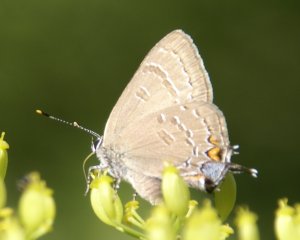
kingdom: Animalia
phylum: Arthropoda
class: Insecta
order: Lepidoptera
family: Lycaenidae
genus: Satyrium
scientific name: Satyrium calanus
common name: Banded Hairstreak
